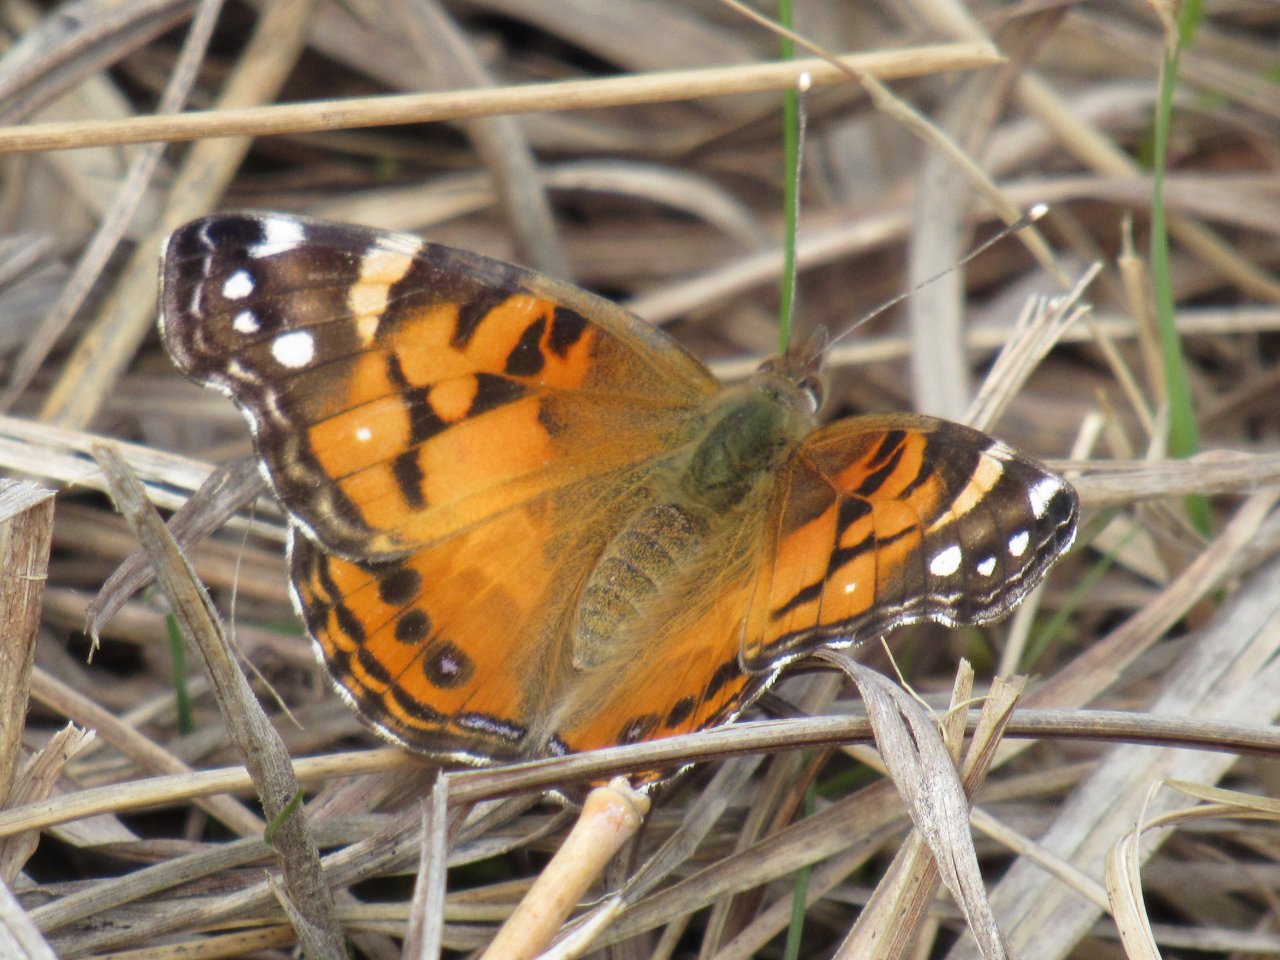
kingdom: Animalia
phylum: Arthropoda
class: Insecta
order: Lepidoptera
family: Nymphalidae
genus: Vanessa
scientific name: Vanessa virginiensis
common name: American Lady
